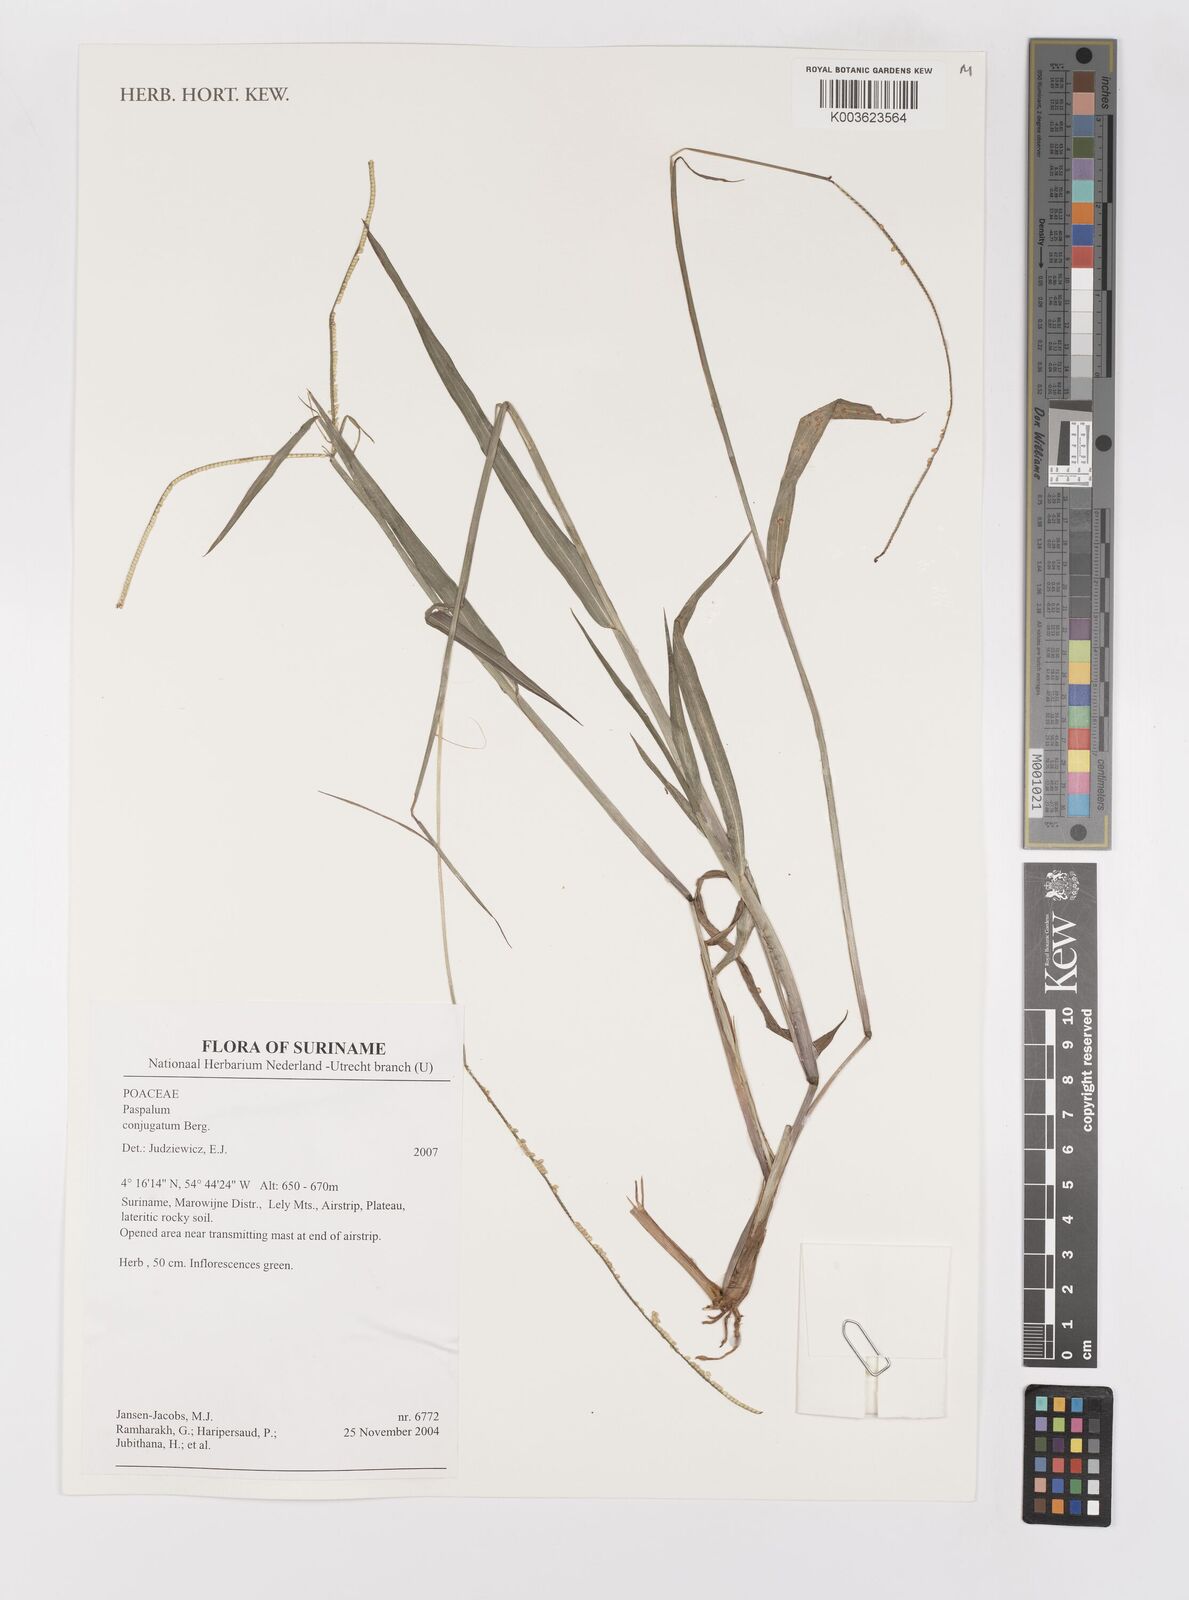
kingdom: Plantae
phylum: Tracheophyta
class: Liliopsida
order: Poales
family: Poaceae
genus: Paspalum
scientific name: Paspalum conjugatum
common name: Hilograss
